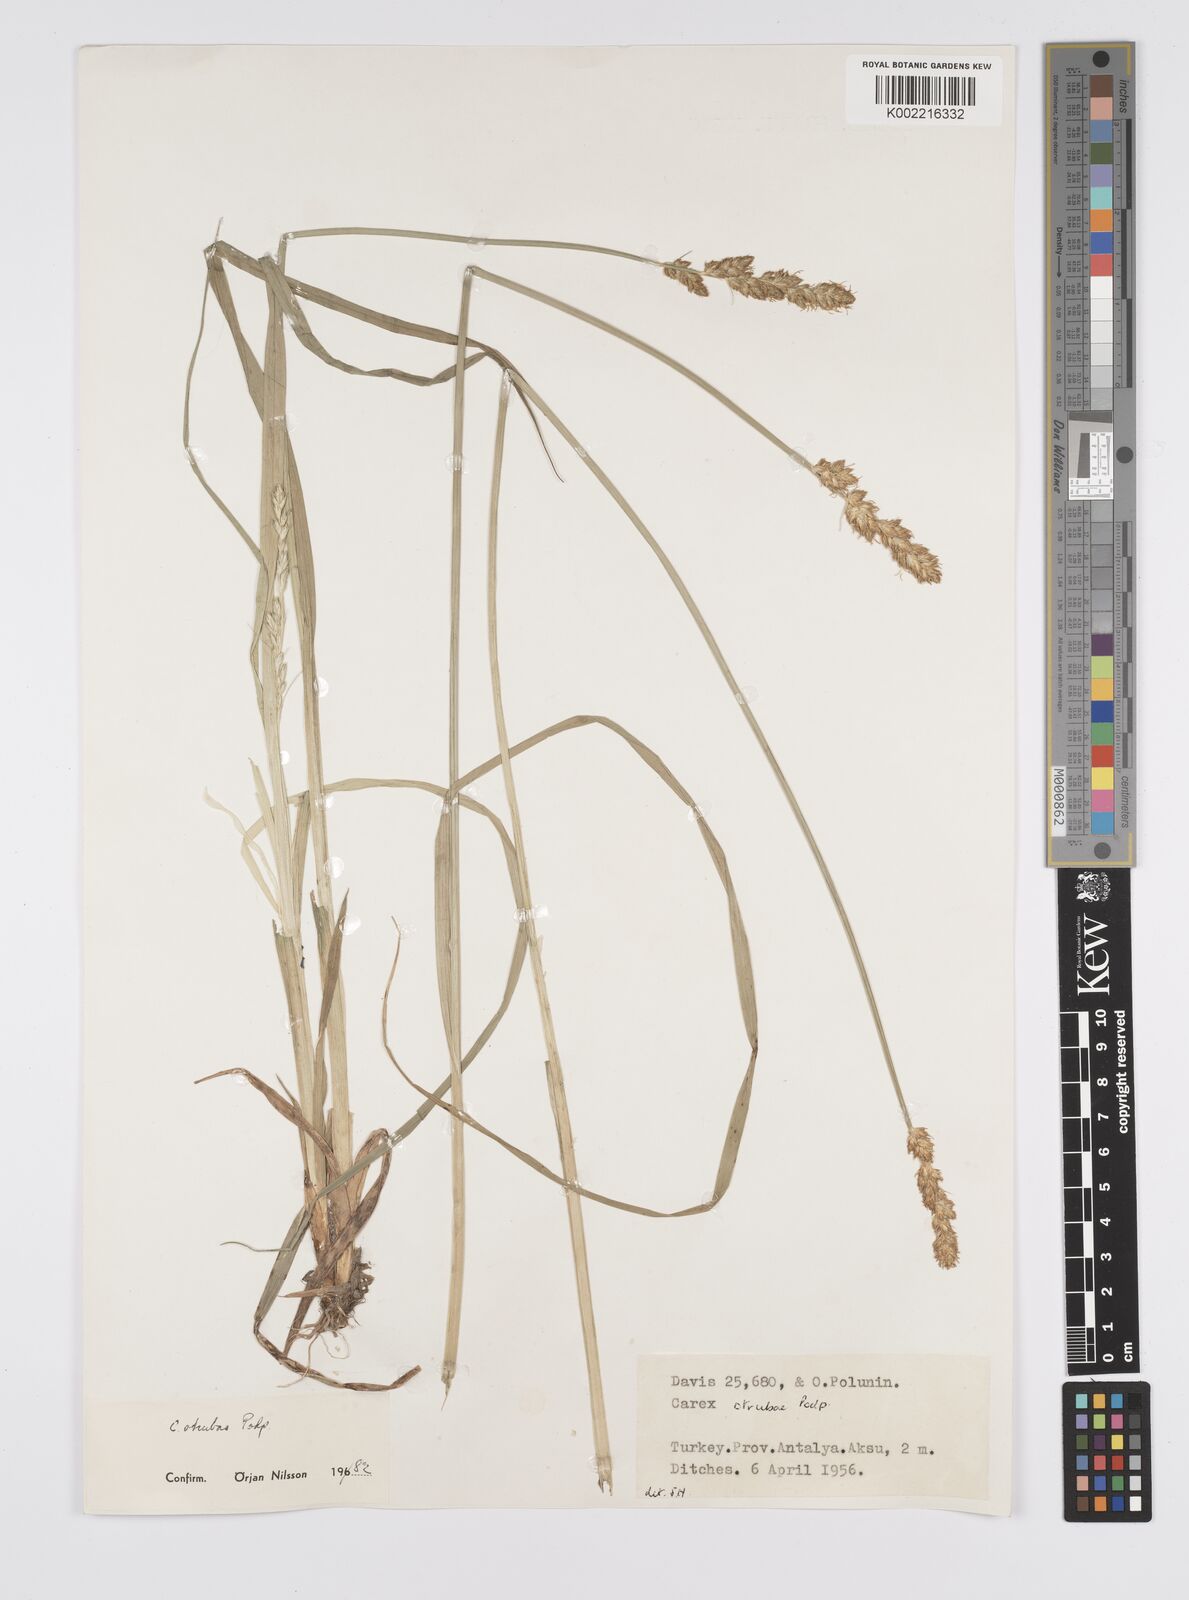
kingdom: Plantae
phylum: Tracheophyta
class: Liliopsida
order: Poales
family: Cyperaceae
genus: Carex
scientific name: Carex otrubae
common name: False fox-sedge
